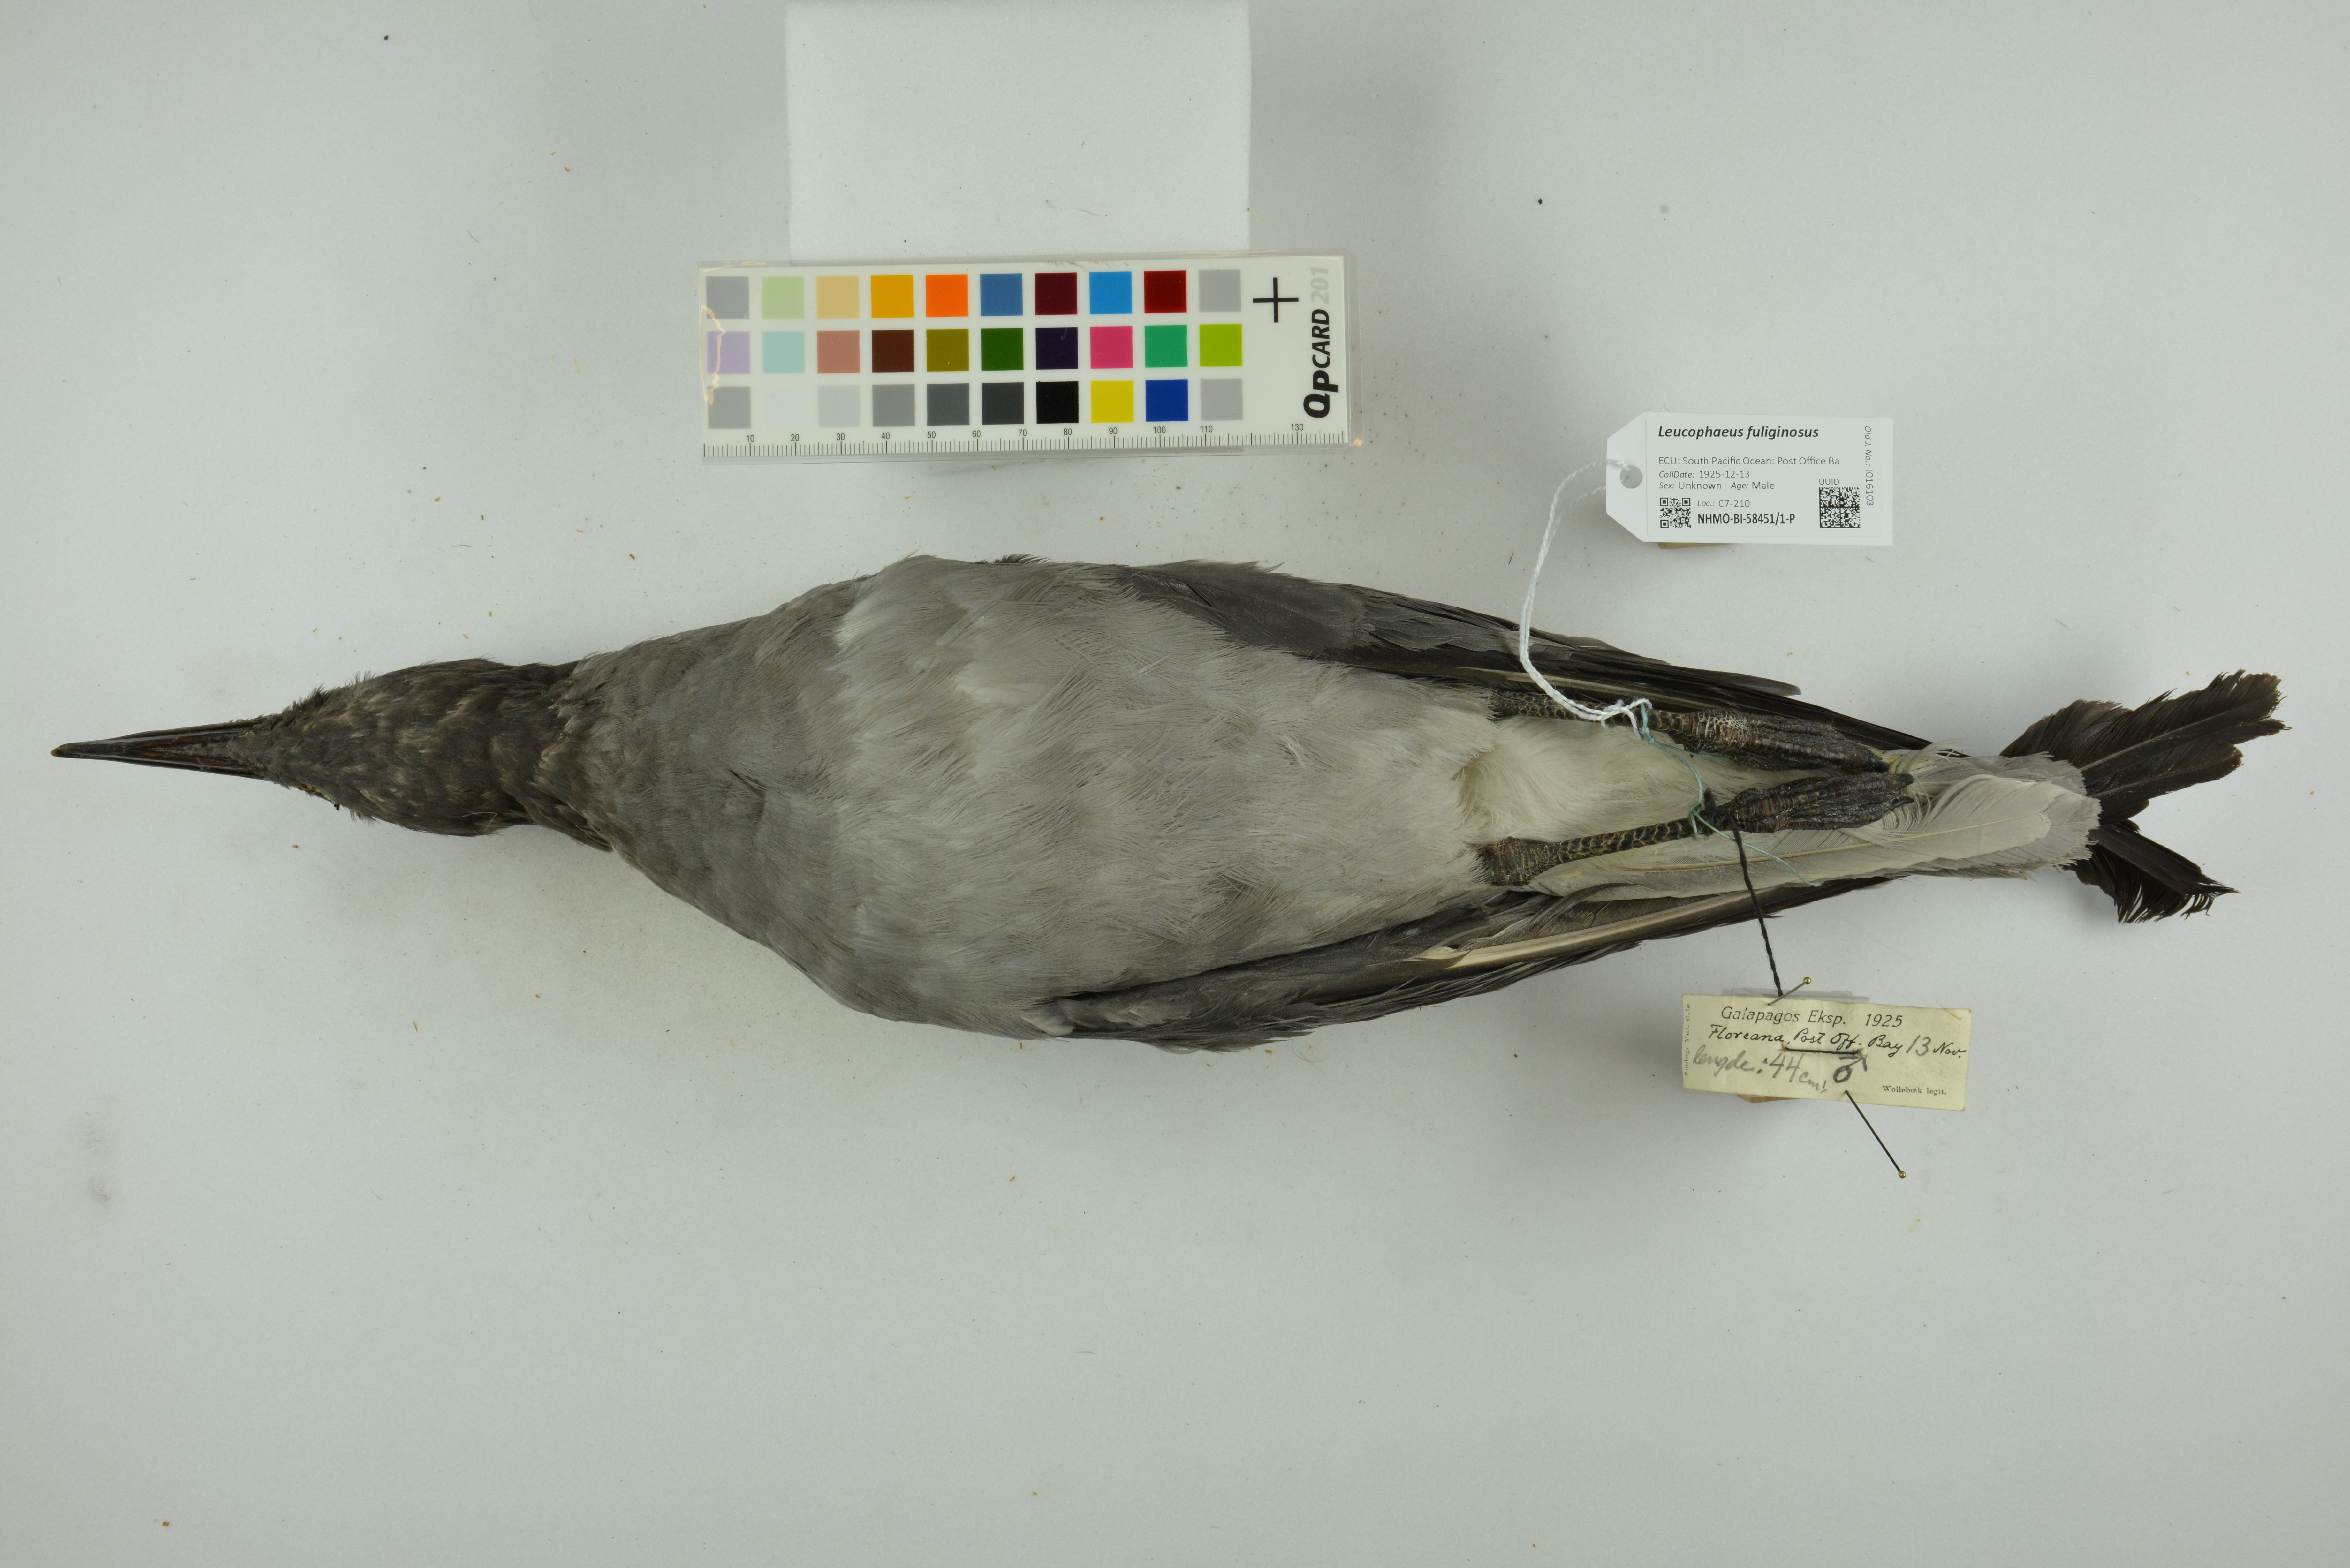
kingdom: Animalia
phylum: Chordata
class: Aves
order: Charadriiformes
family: Laridae
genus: Leucophaeus
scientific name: Leucophaeus fuliginosus
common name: Lava gull
